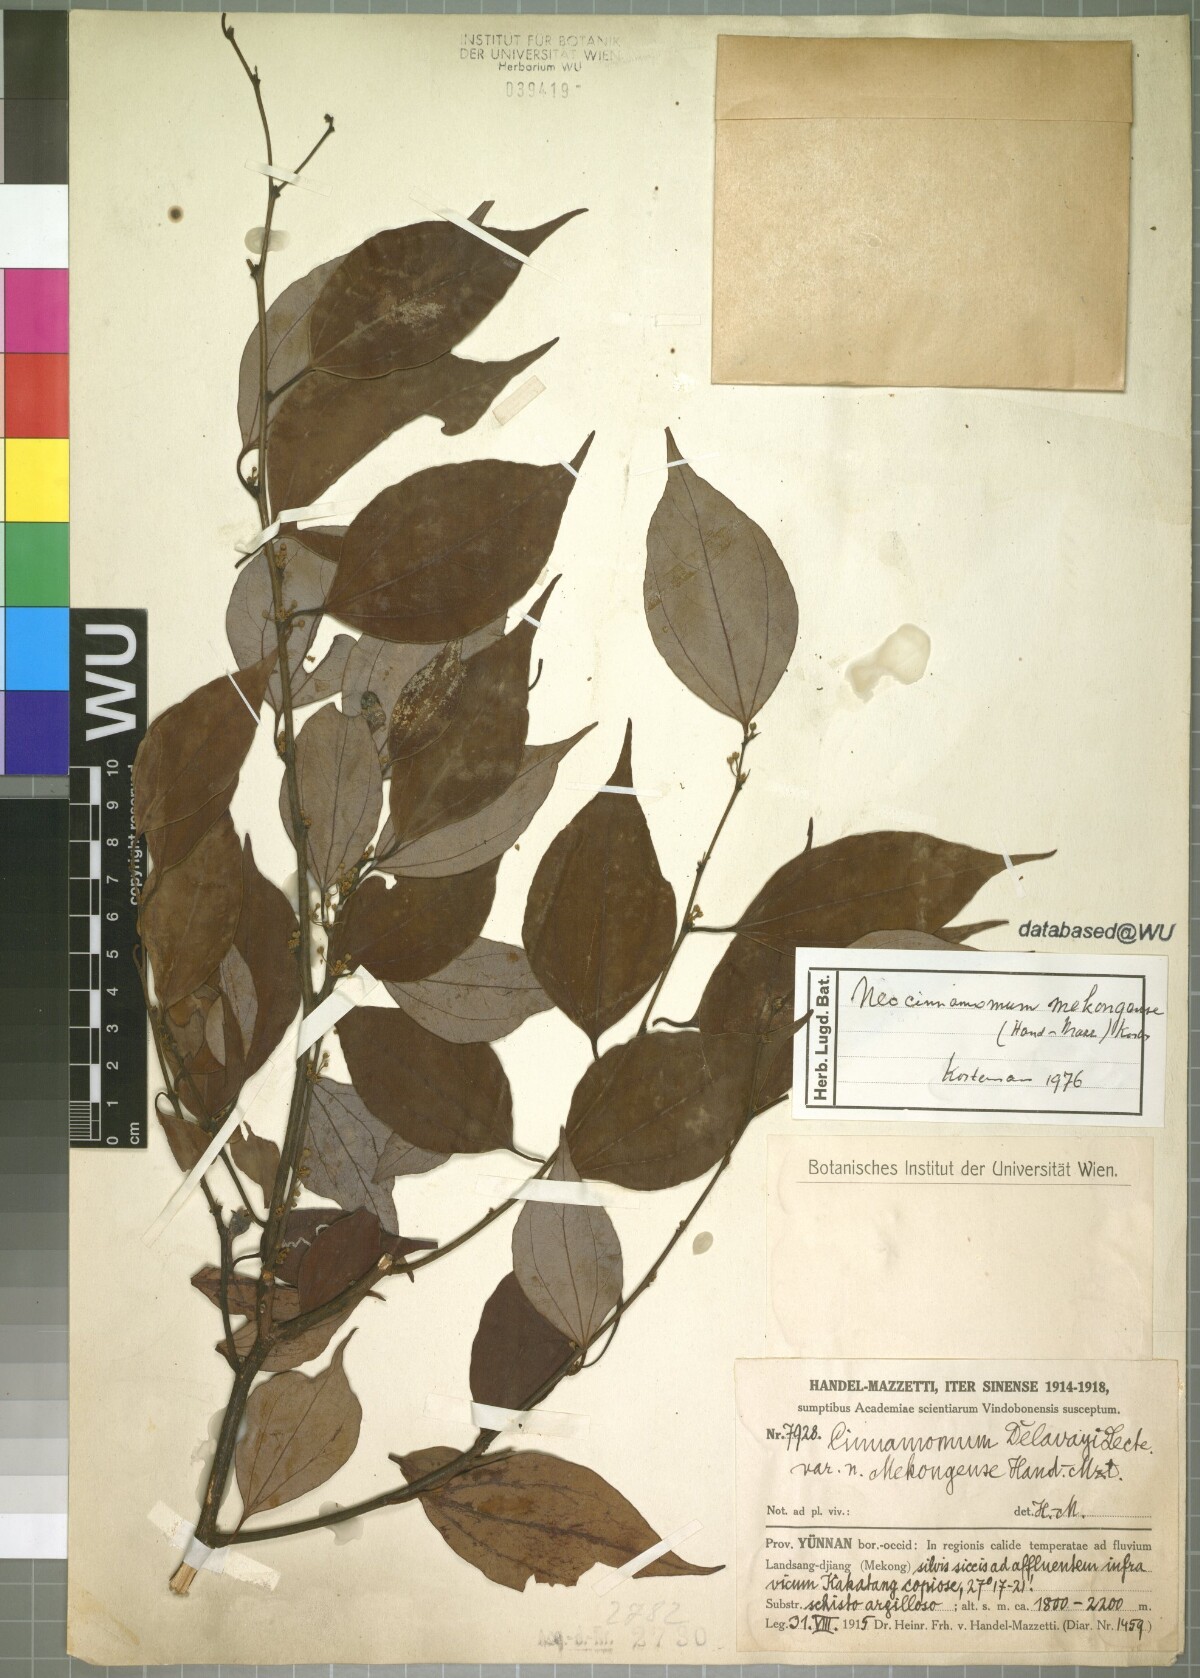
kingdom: Plantae
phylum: Tracheophyta
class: Magnoliopsida
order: Laurales
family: Lauraceae
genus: Neocinnamomum
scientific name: Neocinnamomum mekongense
